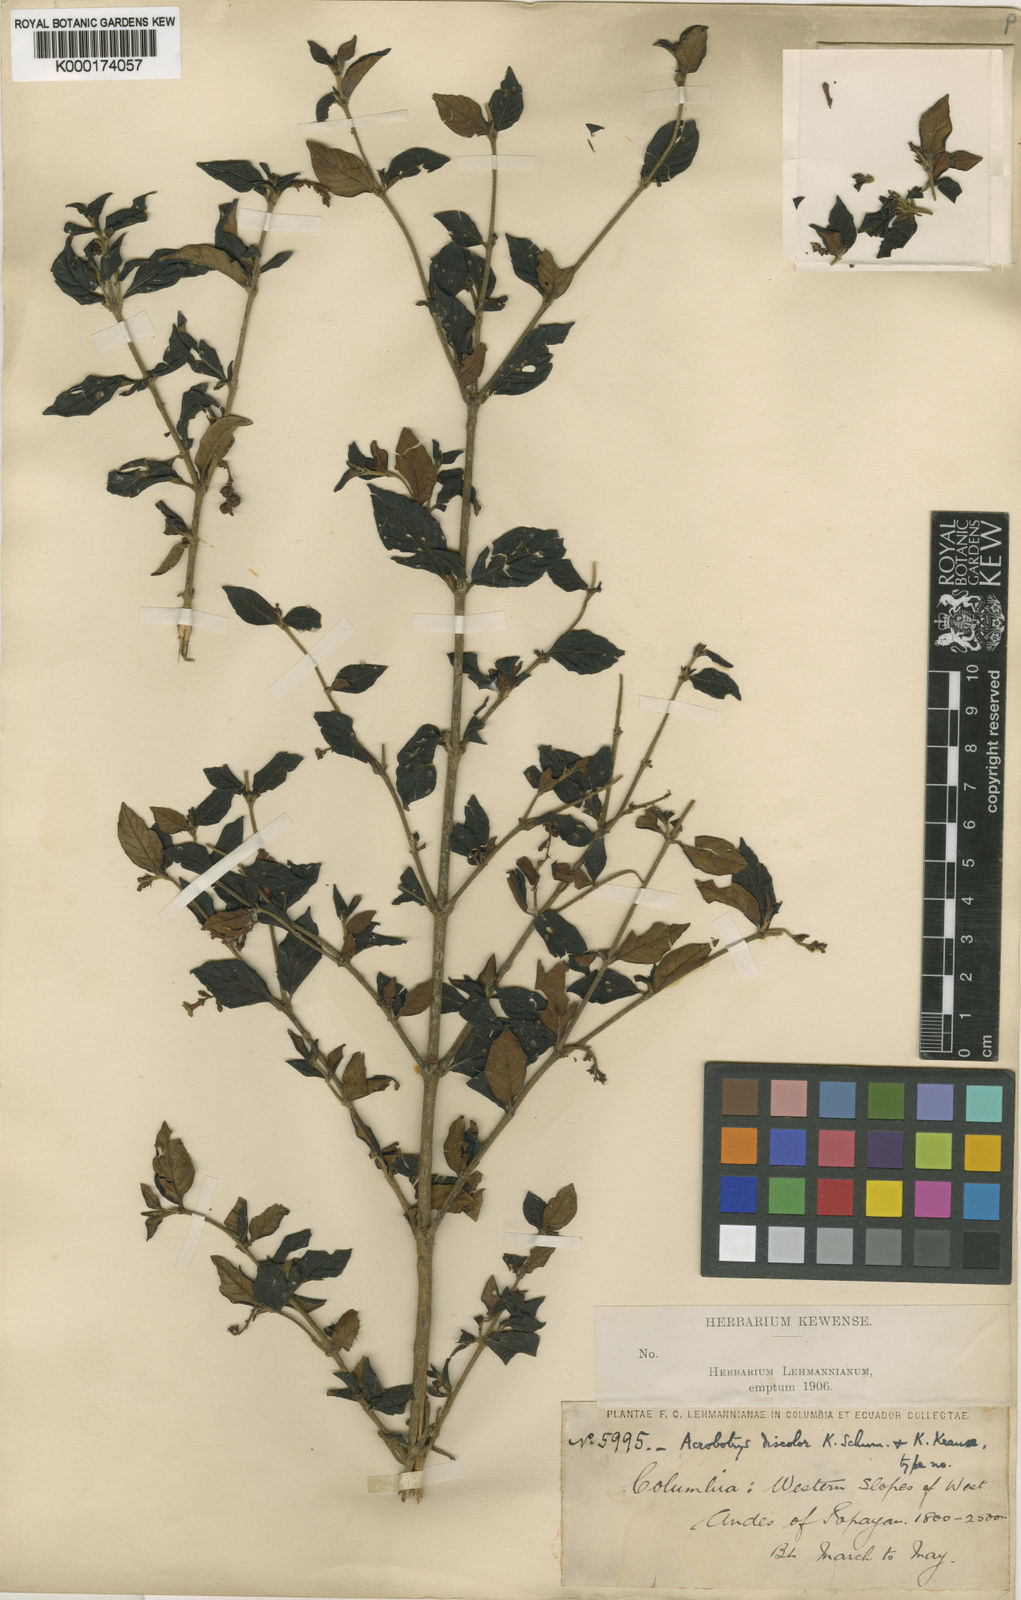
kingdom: Plantae
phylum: Tracheophyta
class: Magnoliopsida
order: Gentianales
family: Rubiaceae
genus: Acrobotrys
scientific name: Acrobotrys discolor
